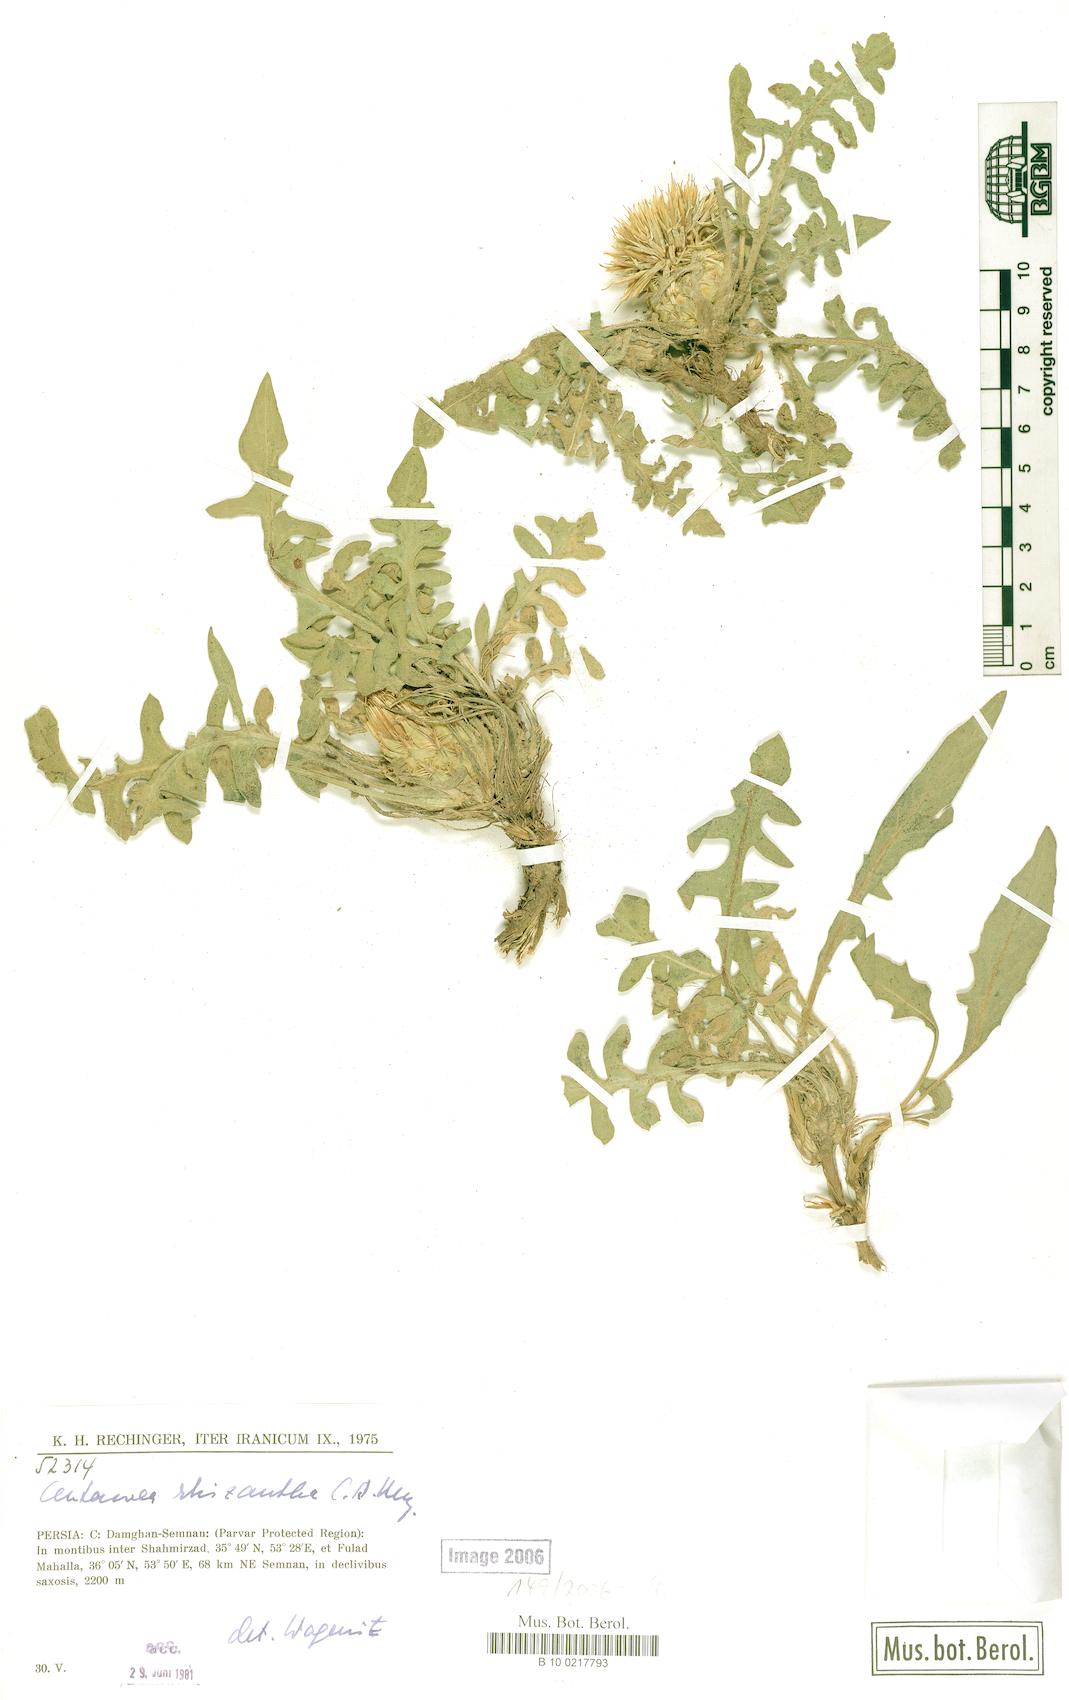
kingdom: Plantae
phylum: Tracheophyta
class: Magnoliopsida
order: Asterales
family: Asteraceae
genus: Centaurea
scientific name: Centaurea rhizantha
